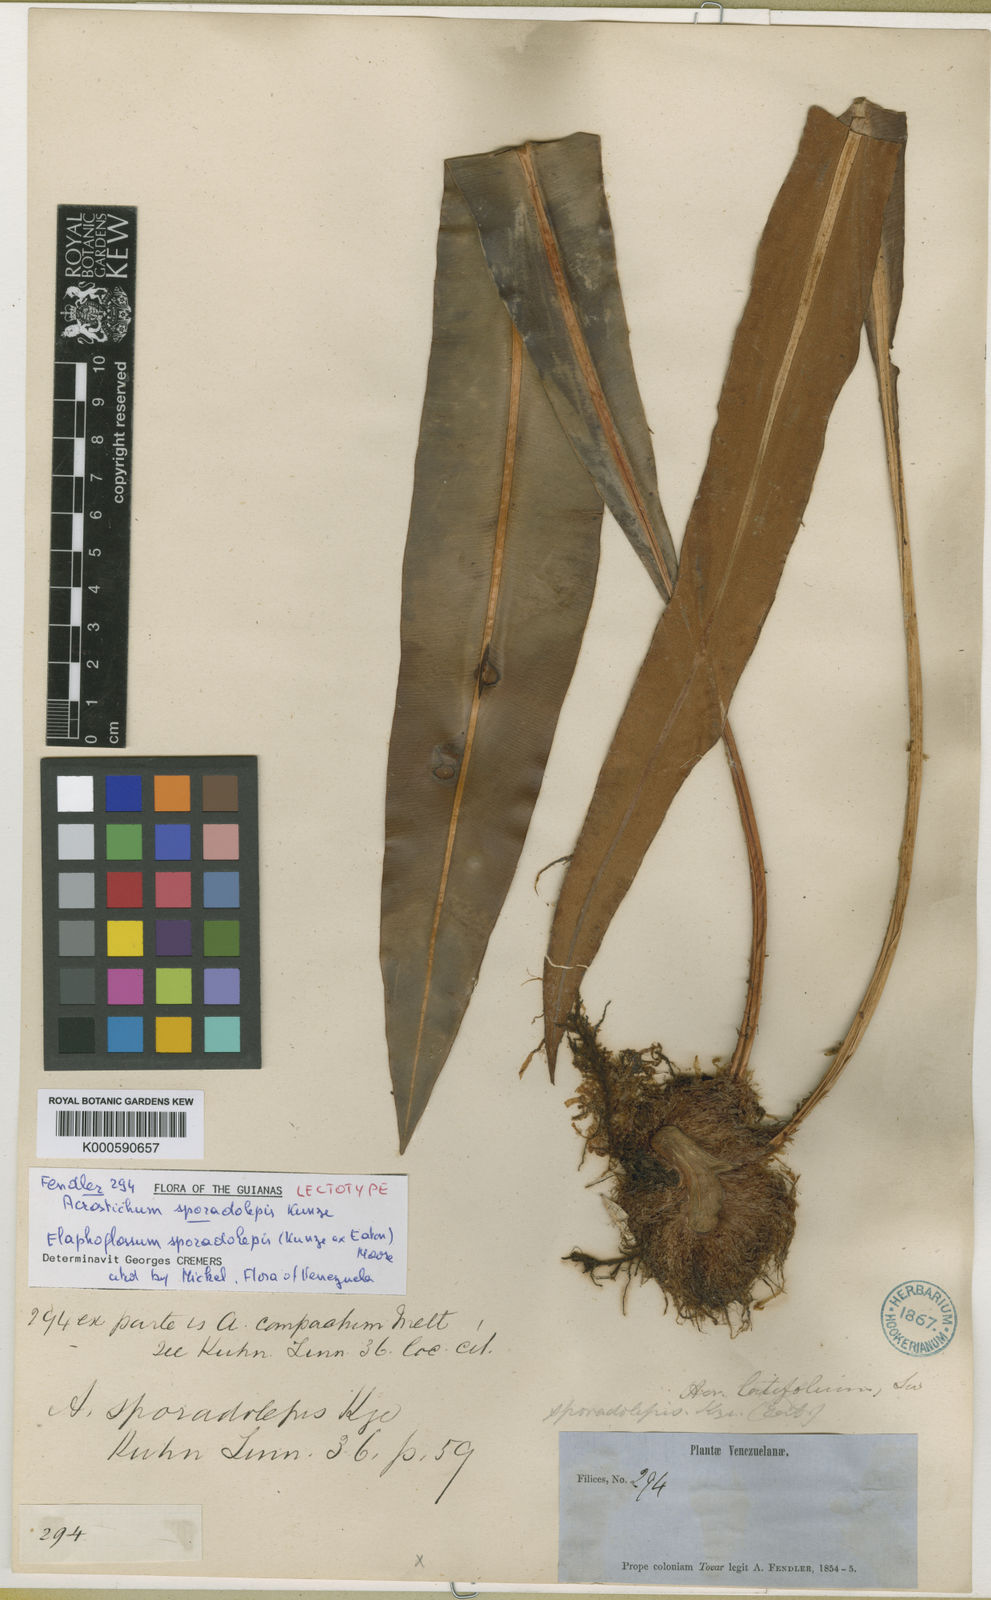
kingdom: Plantae
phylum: Tracheophyta
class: Polypodiopsida
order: Polypodiales
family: Dryopteridaceae
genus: Elaphoglossum
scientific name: Elaphoglossum sporadolepis
